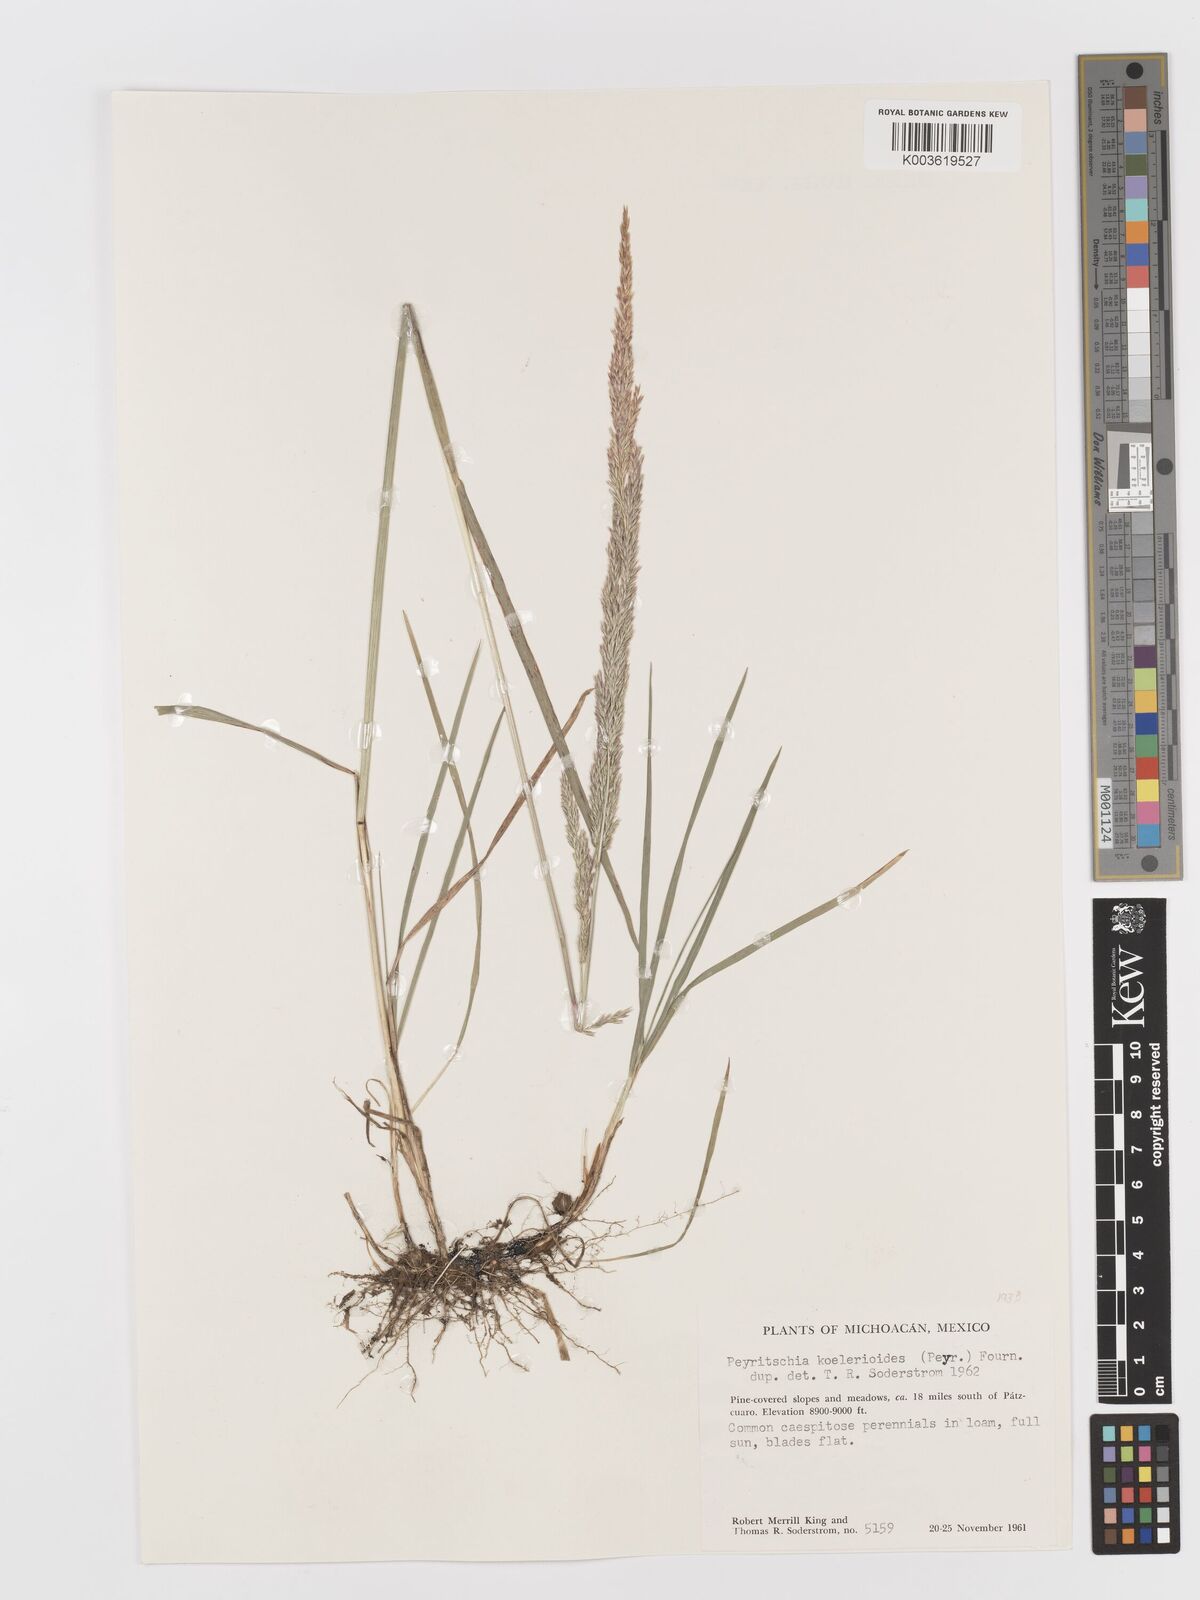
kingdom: Plantae
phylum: Tracheophyta
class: Liliopsida
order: Poales
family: Poaceae
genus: Peyritschia
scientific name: Peyritschia koelerioides
